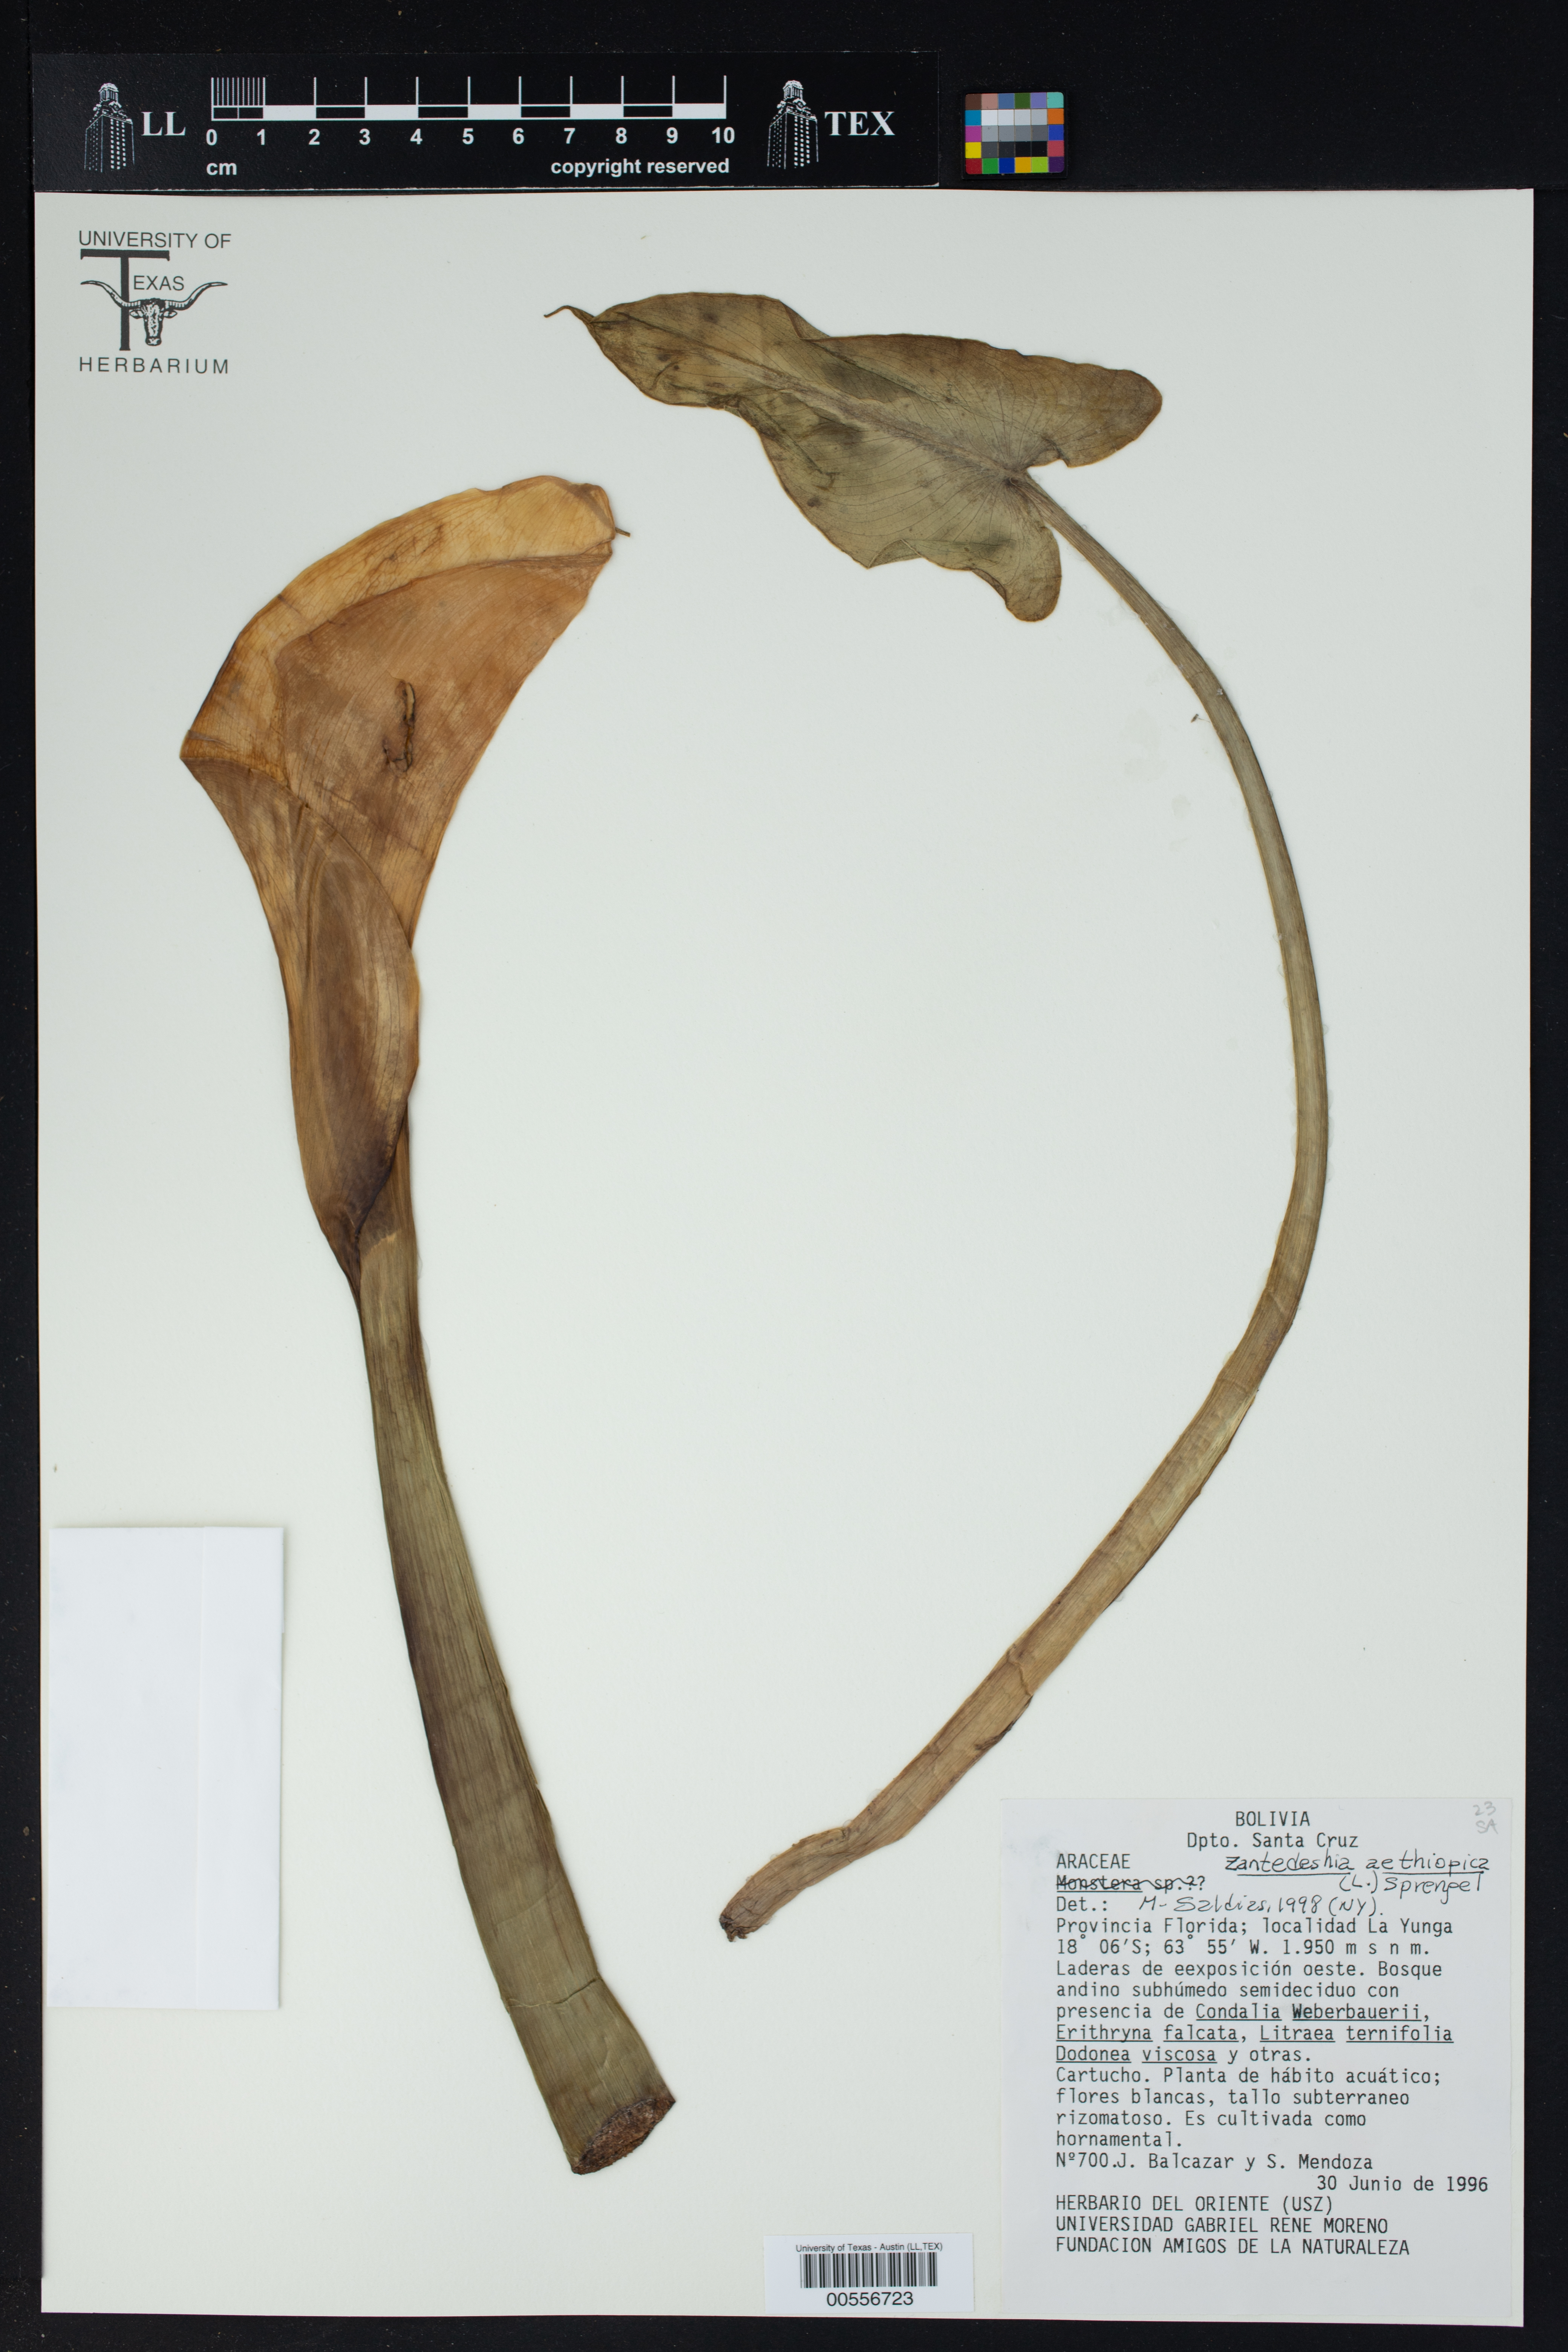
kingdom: Plantae
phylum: Tracheophyta
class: Liliopsida
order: Alismatales
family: Araceae
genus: Zantedeschia
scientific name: Zantedeschia aethiopica
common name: Altar-lily
